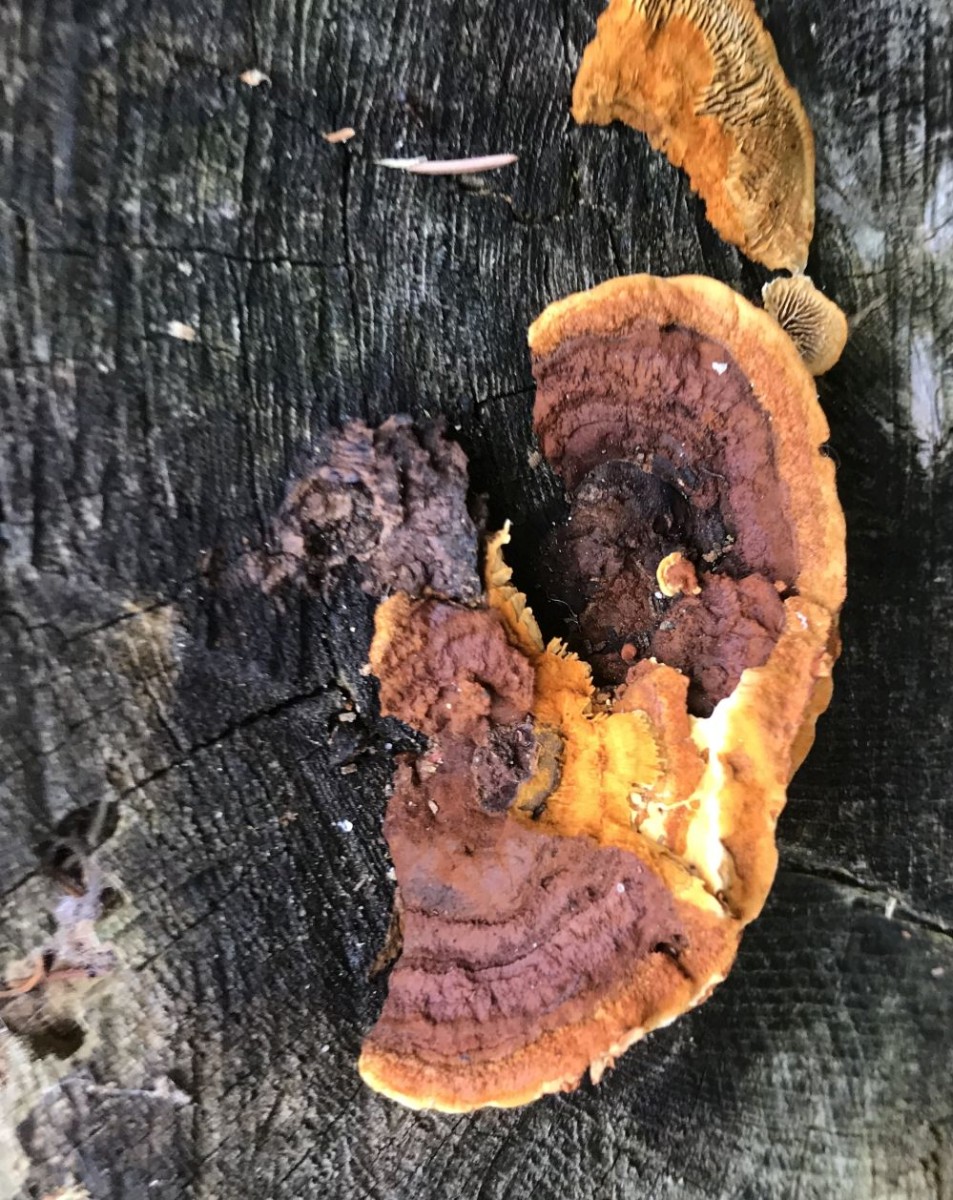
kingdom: Fungi
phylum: Basidiomycota
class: Agaricomycetes
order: Gloeophyllales
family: Gloeophyllaceae
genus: Gloeophyllum
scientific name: Gloeophyllum sepiarium
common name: fyrre-korkhat
